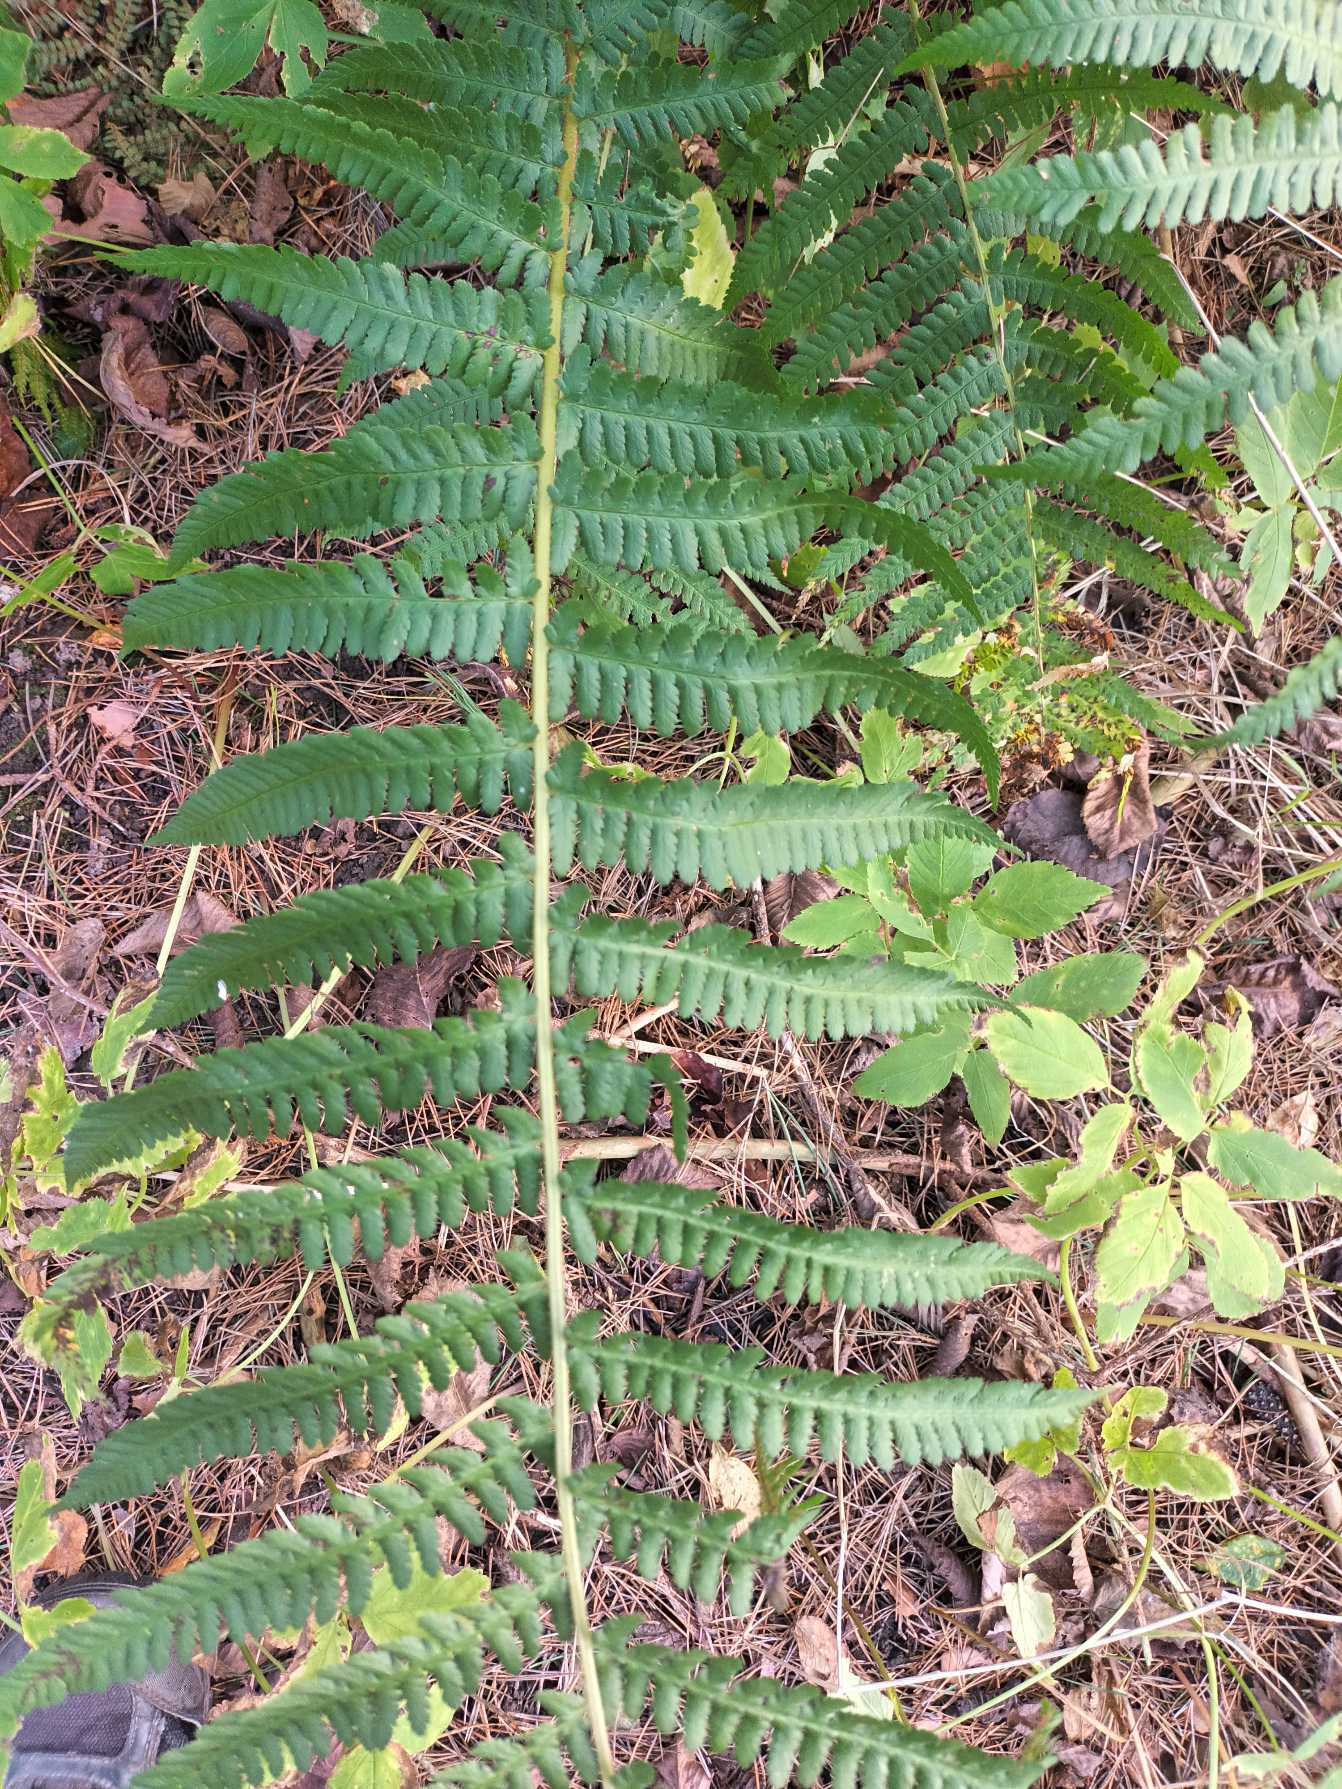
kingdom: Plantae
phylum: Tracheophyta
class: Polypodiopsida
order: Polypodiales
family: Dryopteridaceae
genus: Dryopteris
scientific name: Dryopteris filix-mas
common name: Almindelig mangeløv
